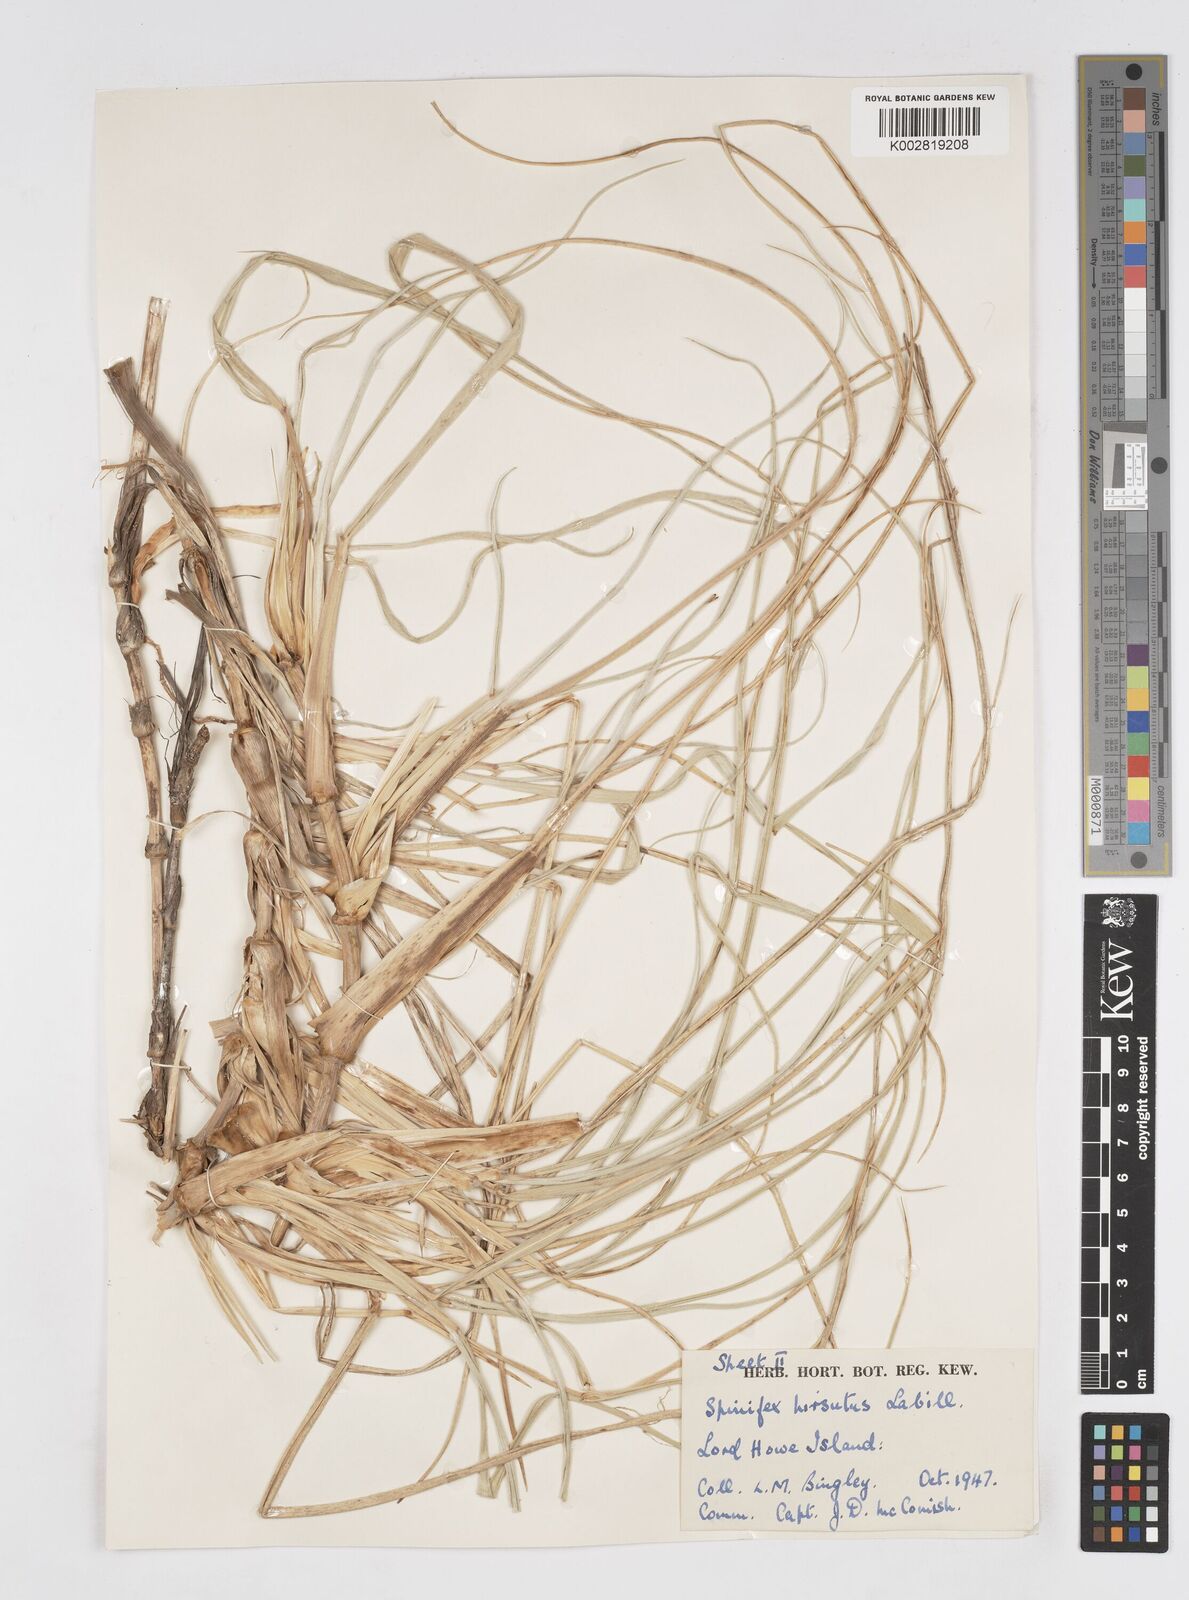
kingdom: Plantae
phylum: Tracheophyta
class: Liliopsida
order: Poales
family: Poaceae
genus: Spinifex
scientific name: Spinifex hirsutus
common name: Hairy spinifex
